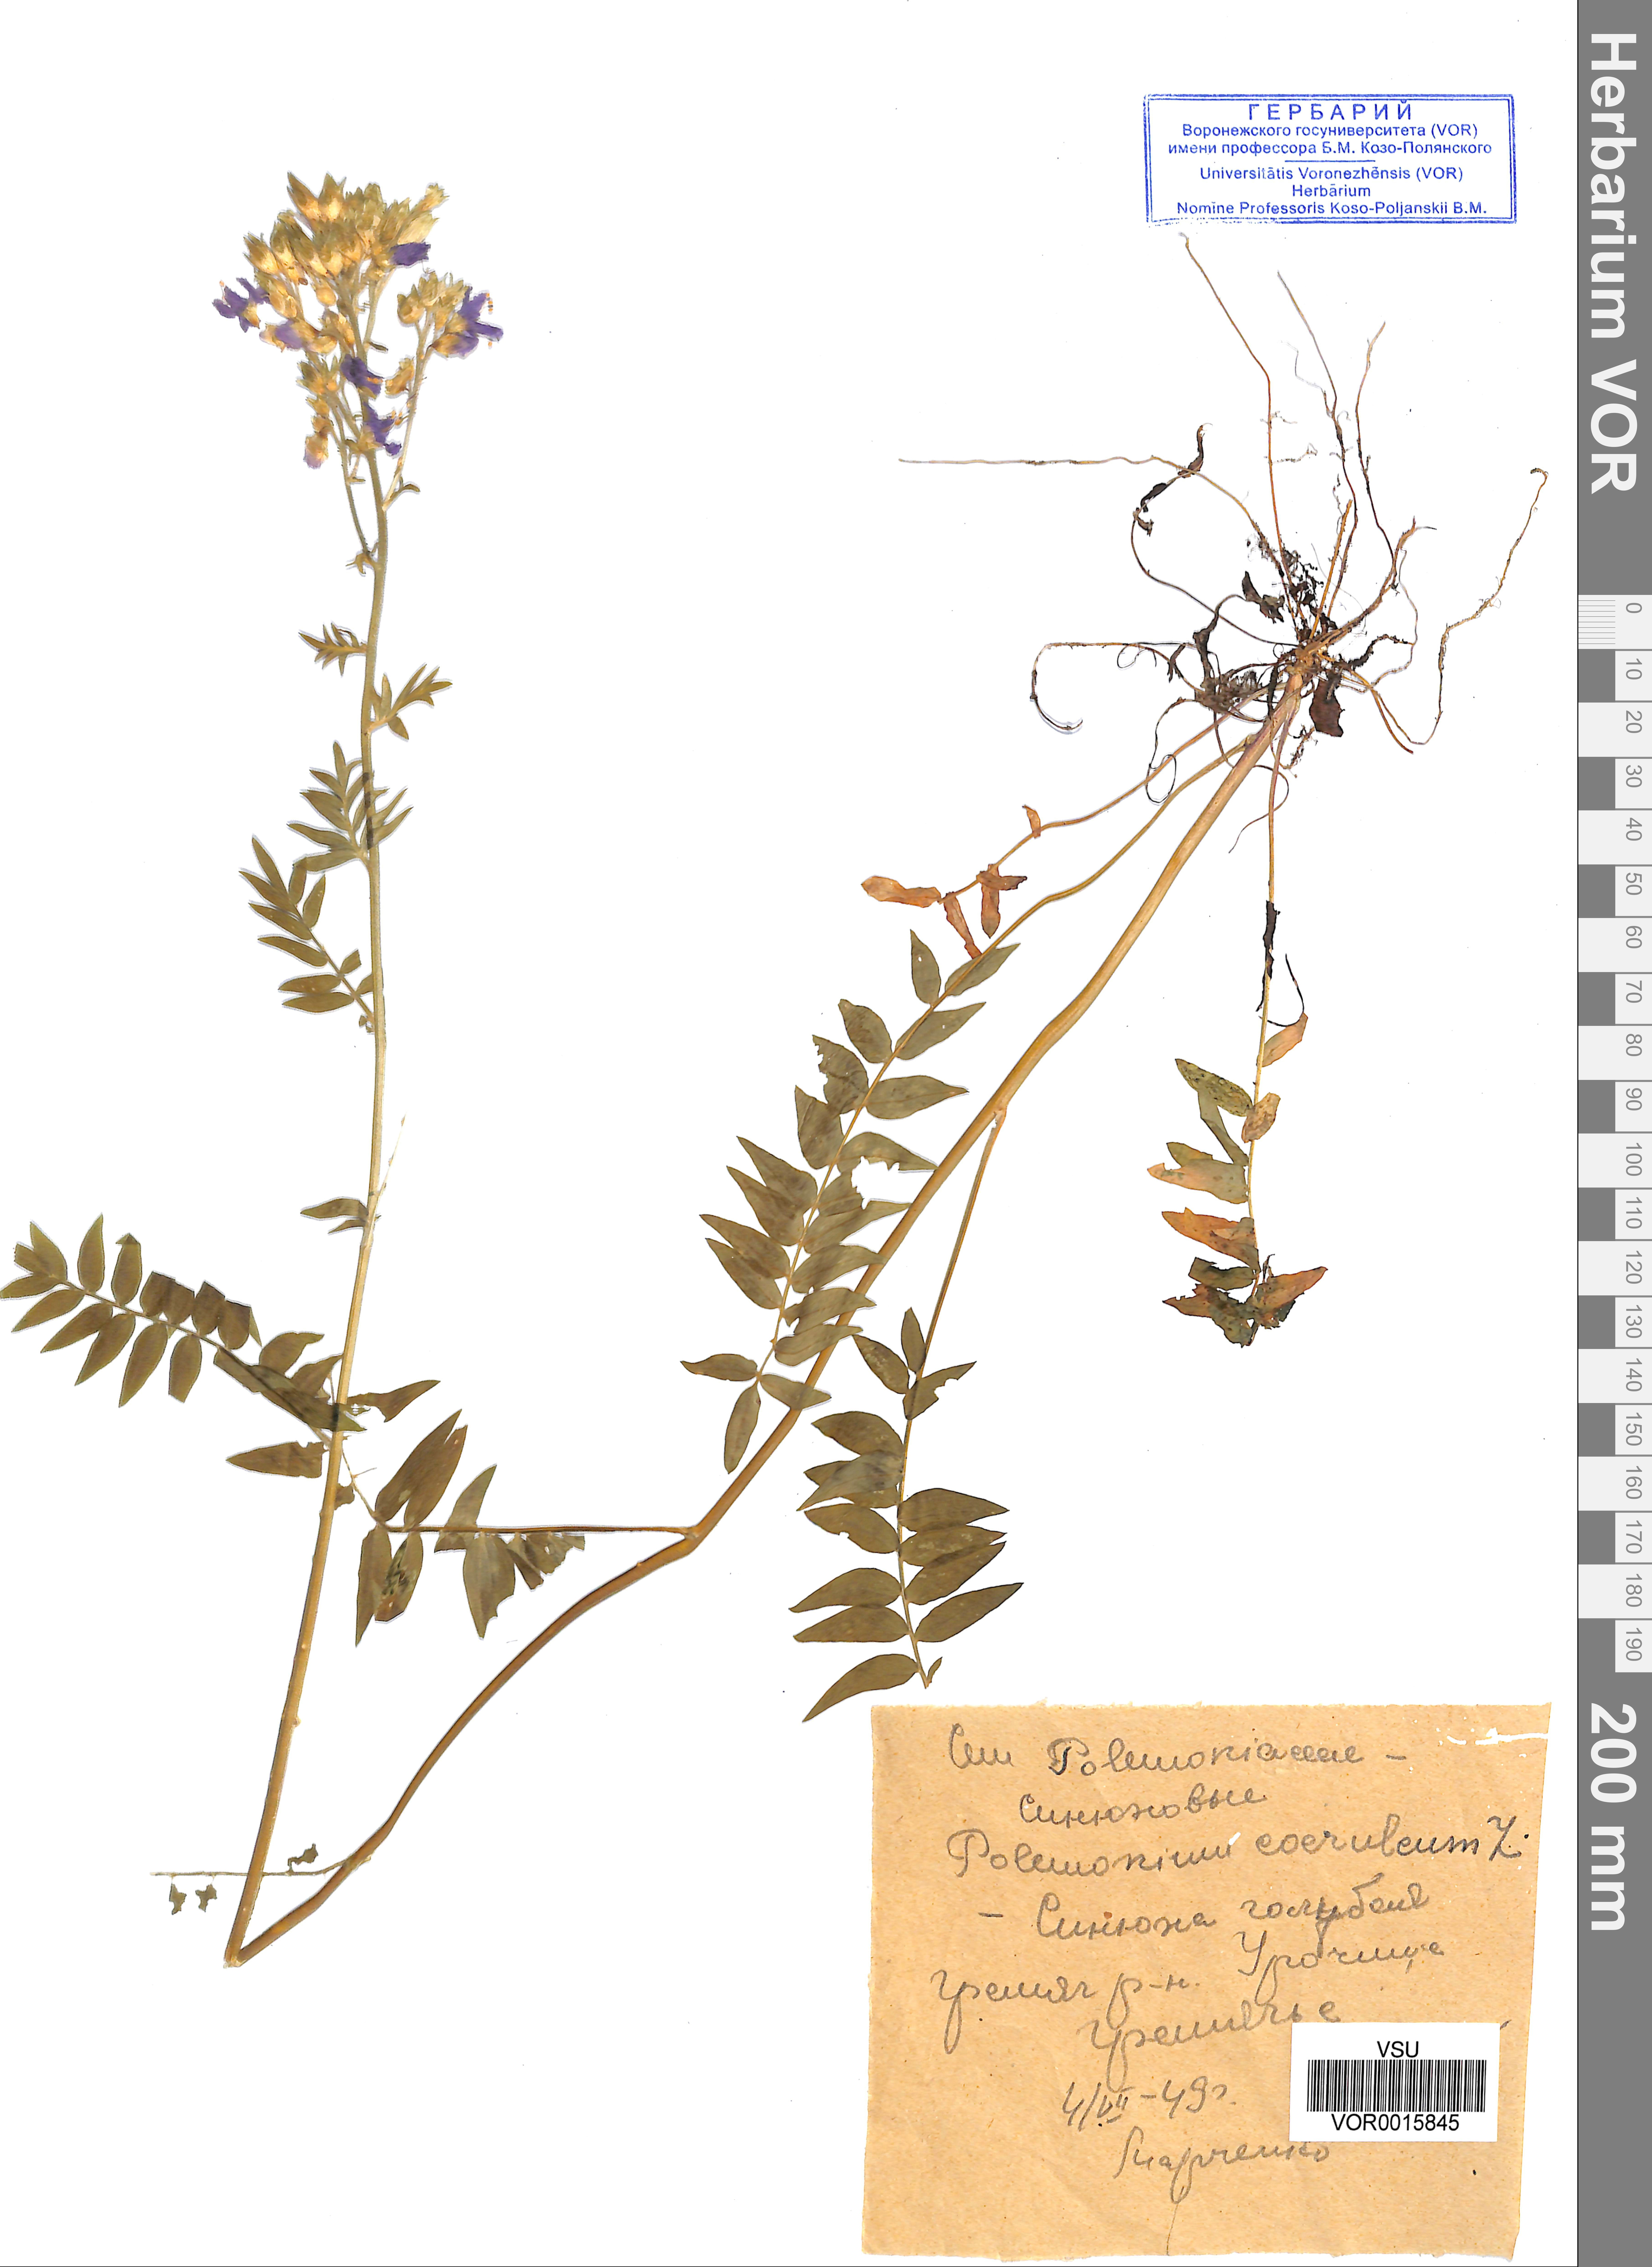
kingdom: Plantae
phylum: Tracheophyta
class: Magnoliopsida
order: Ericales
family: Polemoniaceae
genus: Polemonium
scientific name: Polemonium caeruleum
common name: Jacob's-ladder
